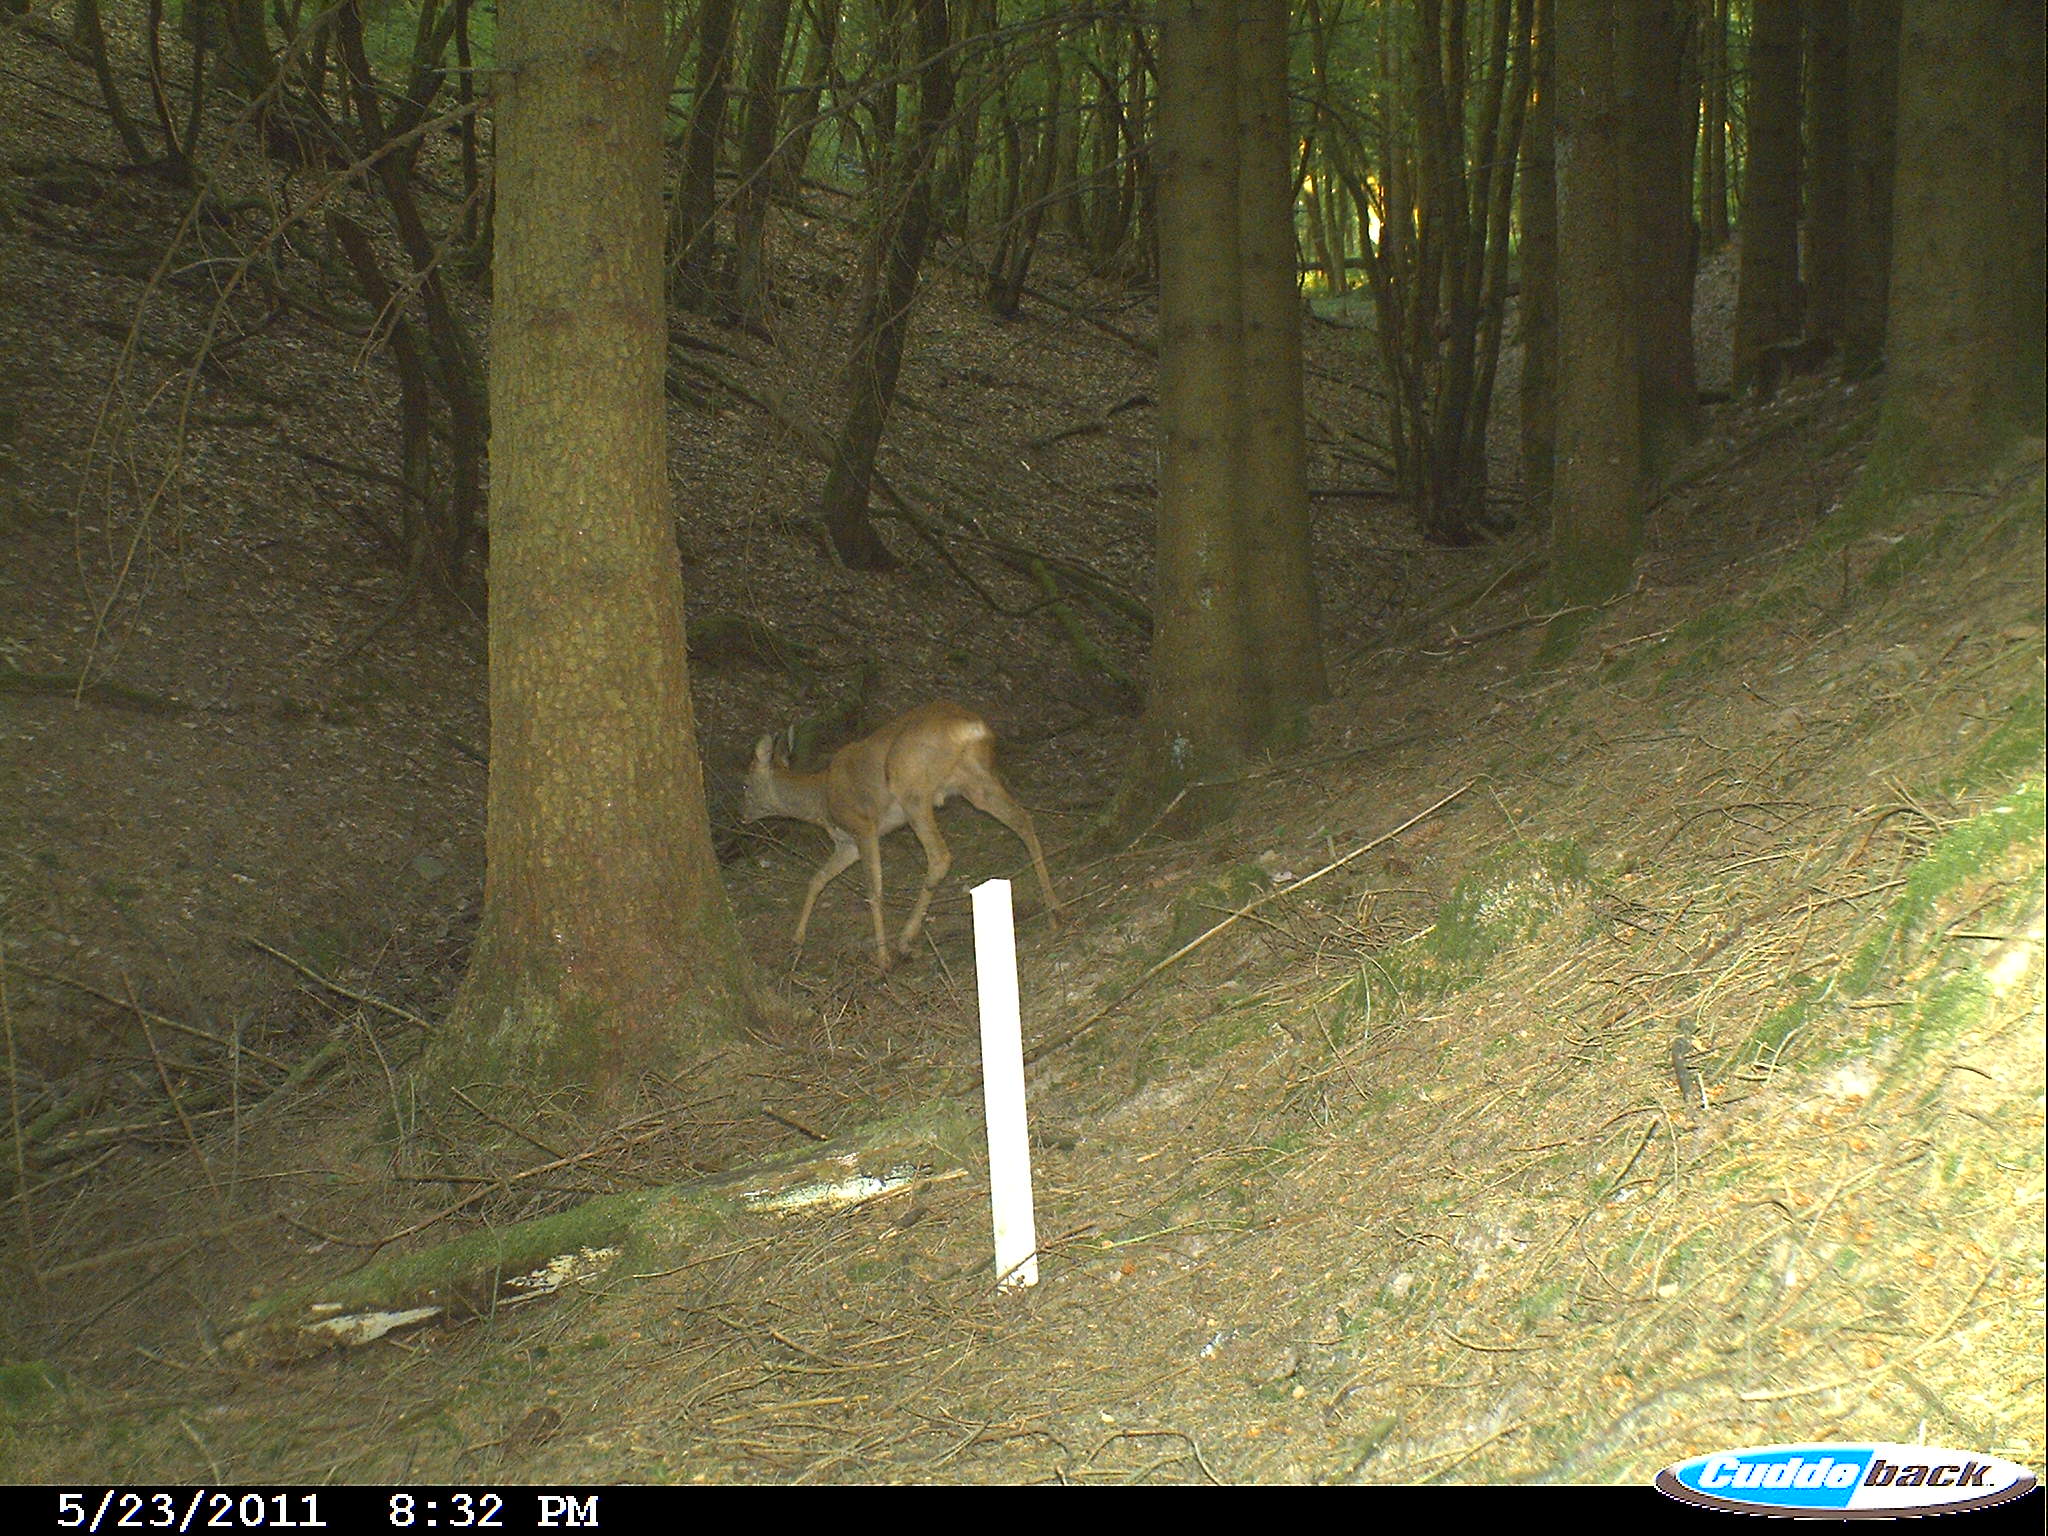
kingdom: Animalia
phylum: Chordata
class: Mammalia
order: Artiodactyla
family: Cervidae
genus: Capreolus
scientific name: Capreolus capreolus
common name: Western roe deer
